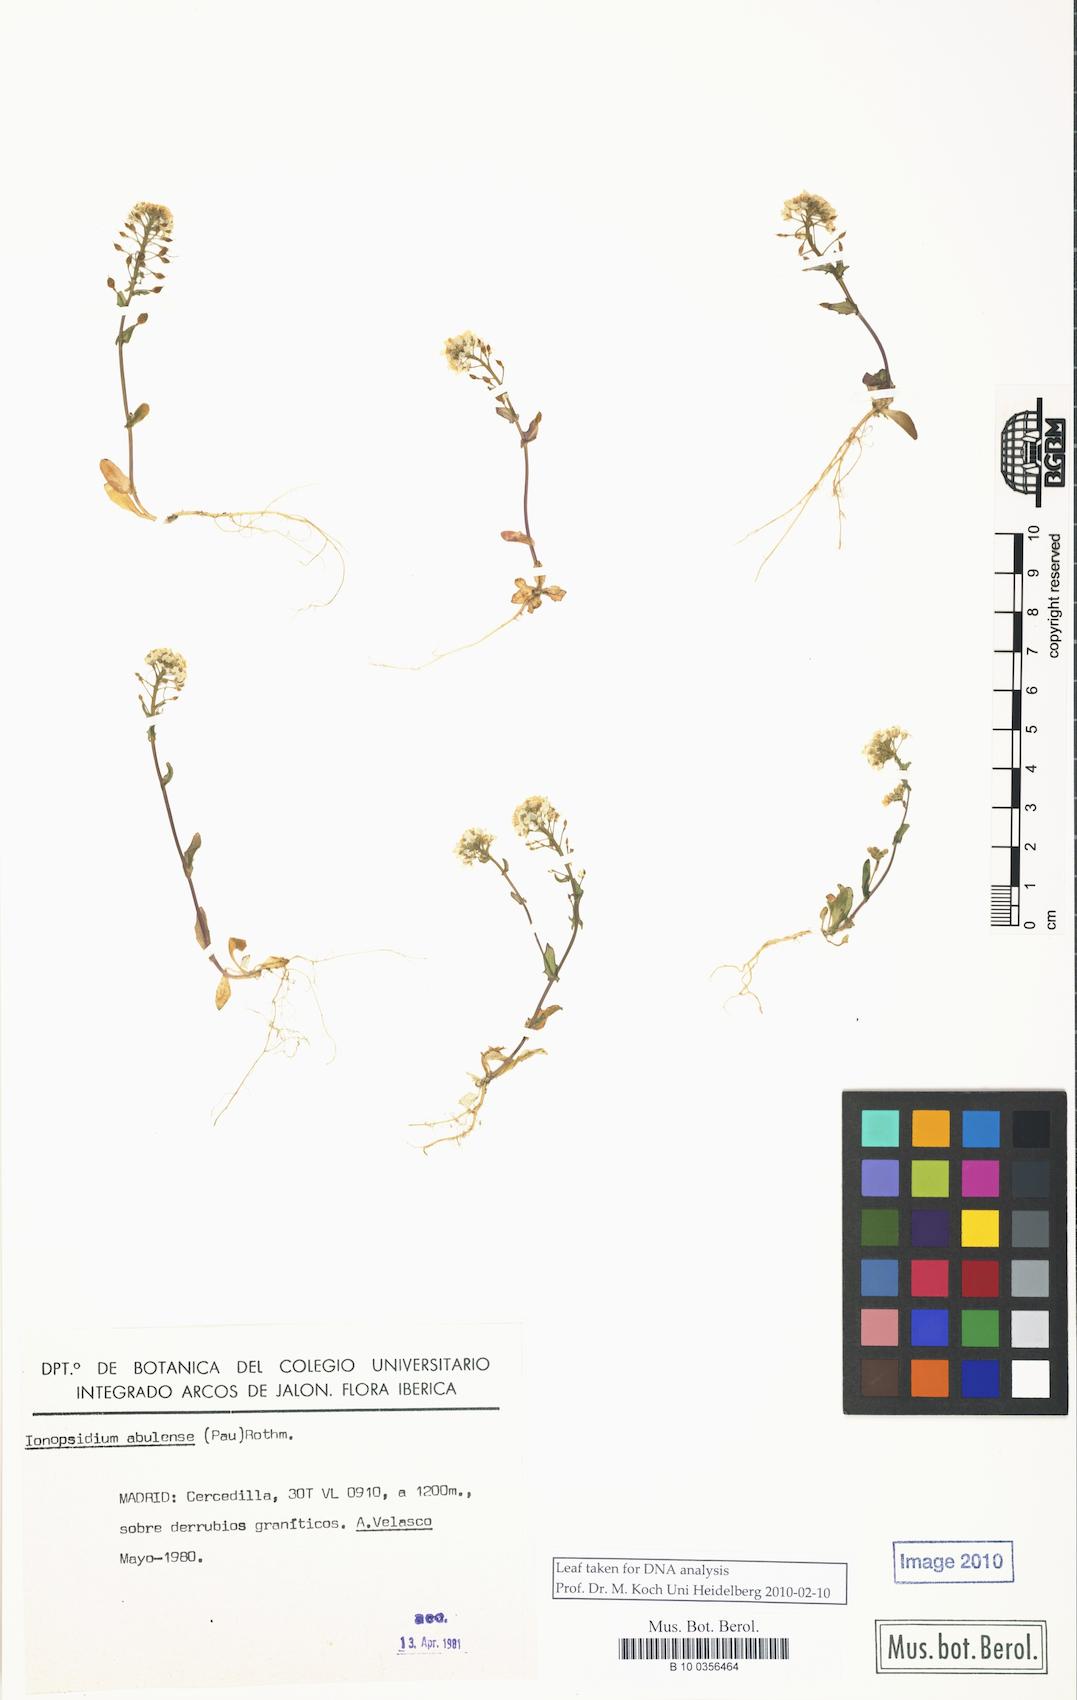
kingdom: Plantae
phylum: Tracheophyta
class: Magnoliopsida
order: Brassicales
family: Brassicaceae
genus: Ionopsidium
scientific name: Ionopsidium abulense
